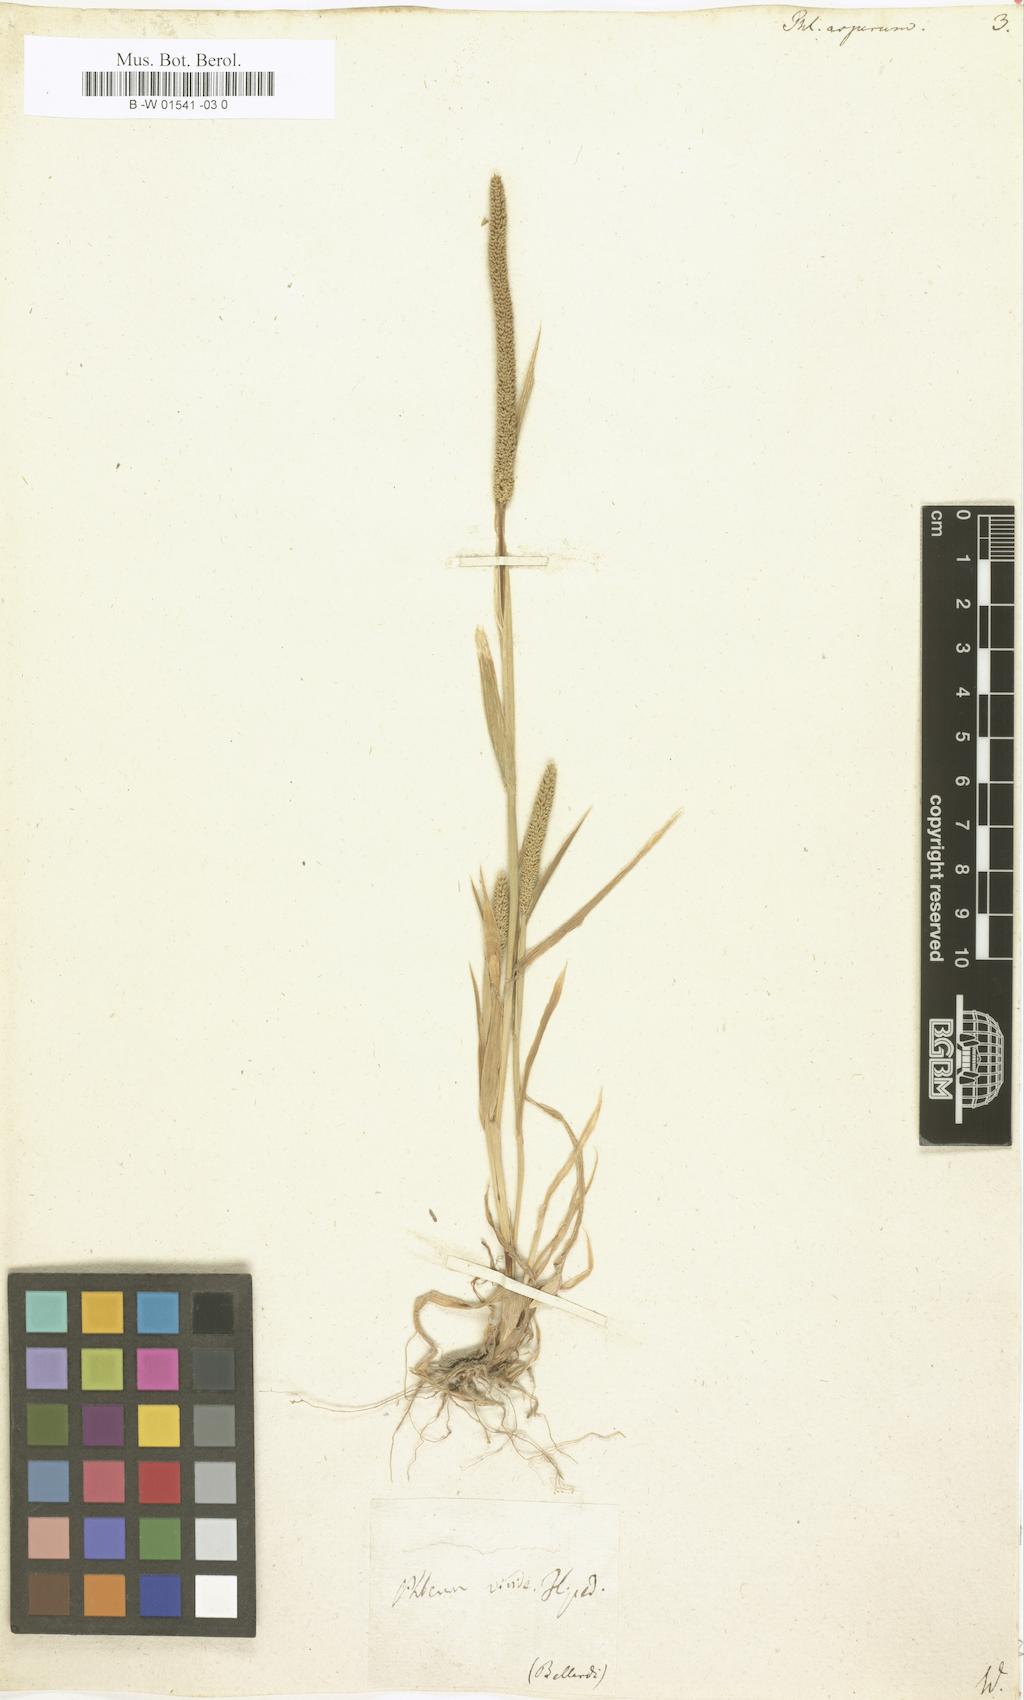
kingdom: Plantae
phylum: Tracheophyta
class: Liliopsida
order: Poales
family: Poaceae
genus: Phleum
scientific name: Phleum paniculatum
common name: British timothy
